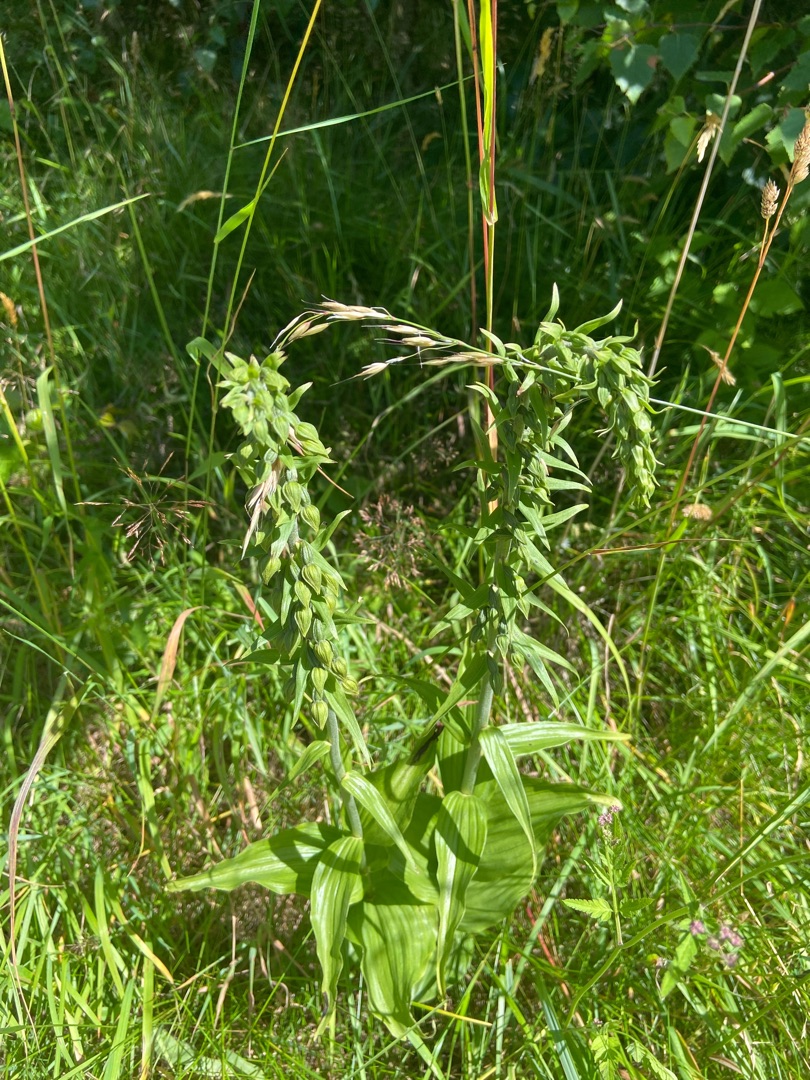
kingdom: Plantae
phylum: Tracheophyta
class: Liliopsida
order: Asparagales
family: Orchidaceae
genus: Epipactis
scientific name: Epipactis helleborine
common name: Skov-hullæbe
